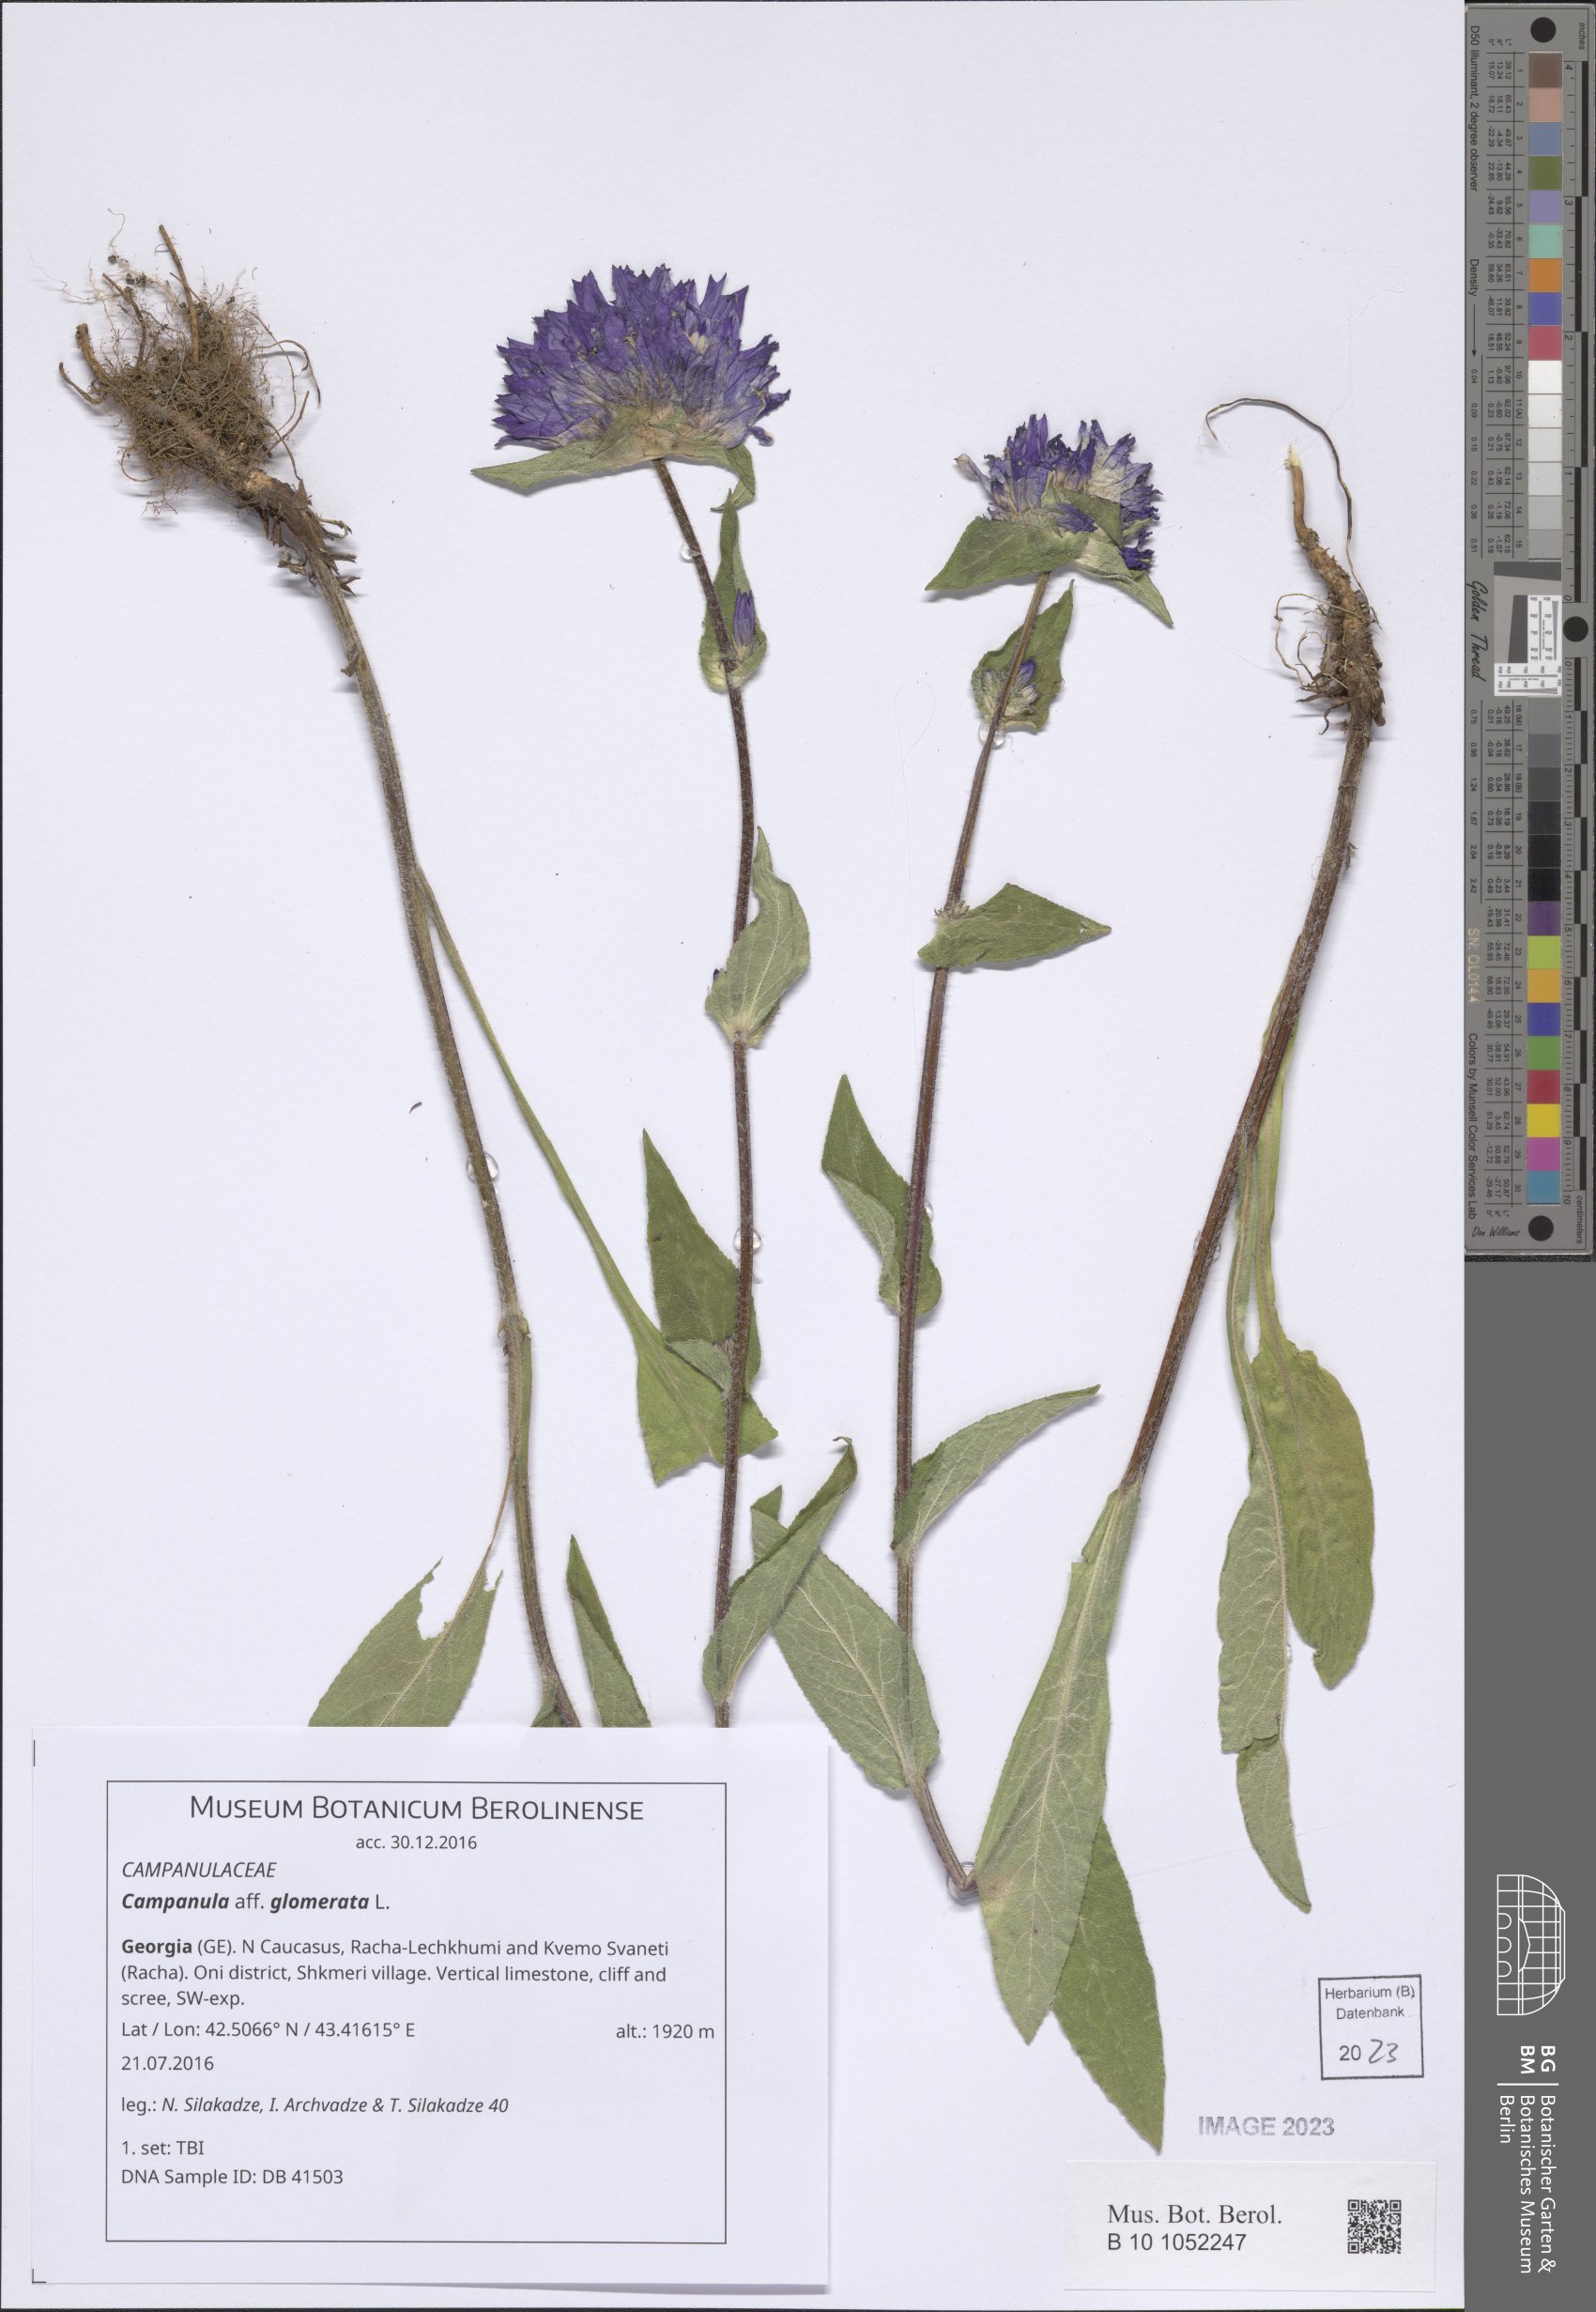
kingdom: Plantae
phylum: Tracheophyta
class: Magnoliopsida
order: Asterales
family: Campanulaceae
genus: Campanula
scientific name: Campanula glomerata
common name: Clustered bellflower
